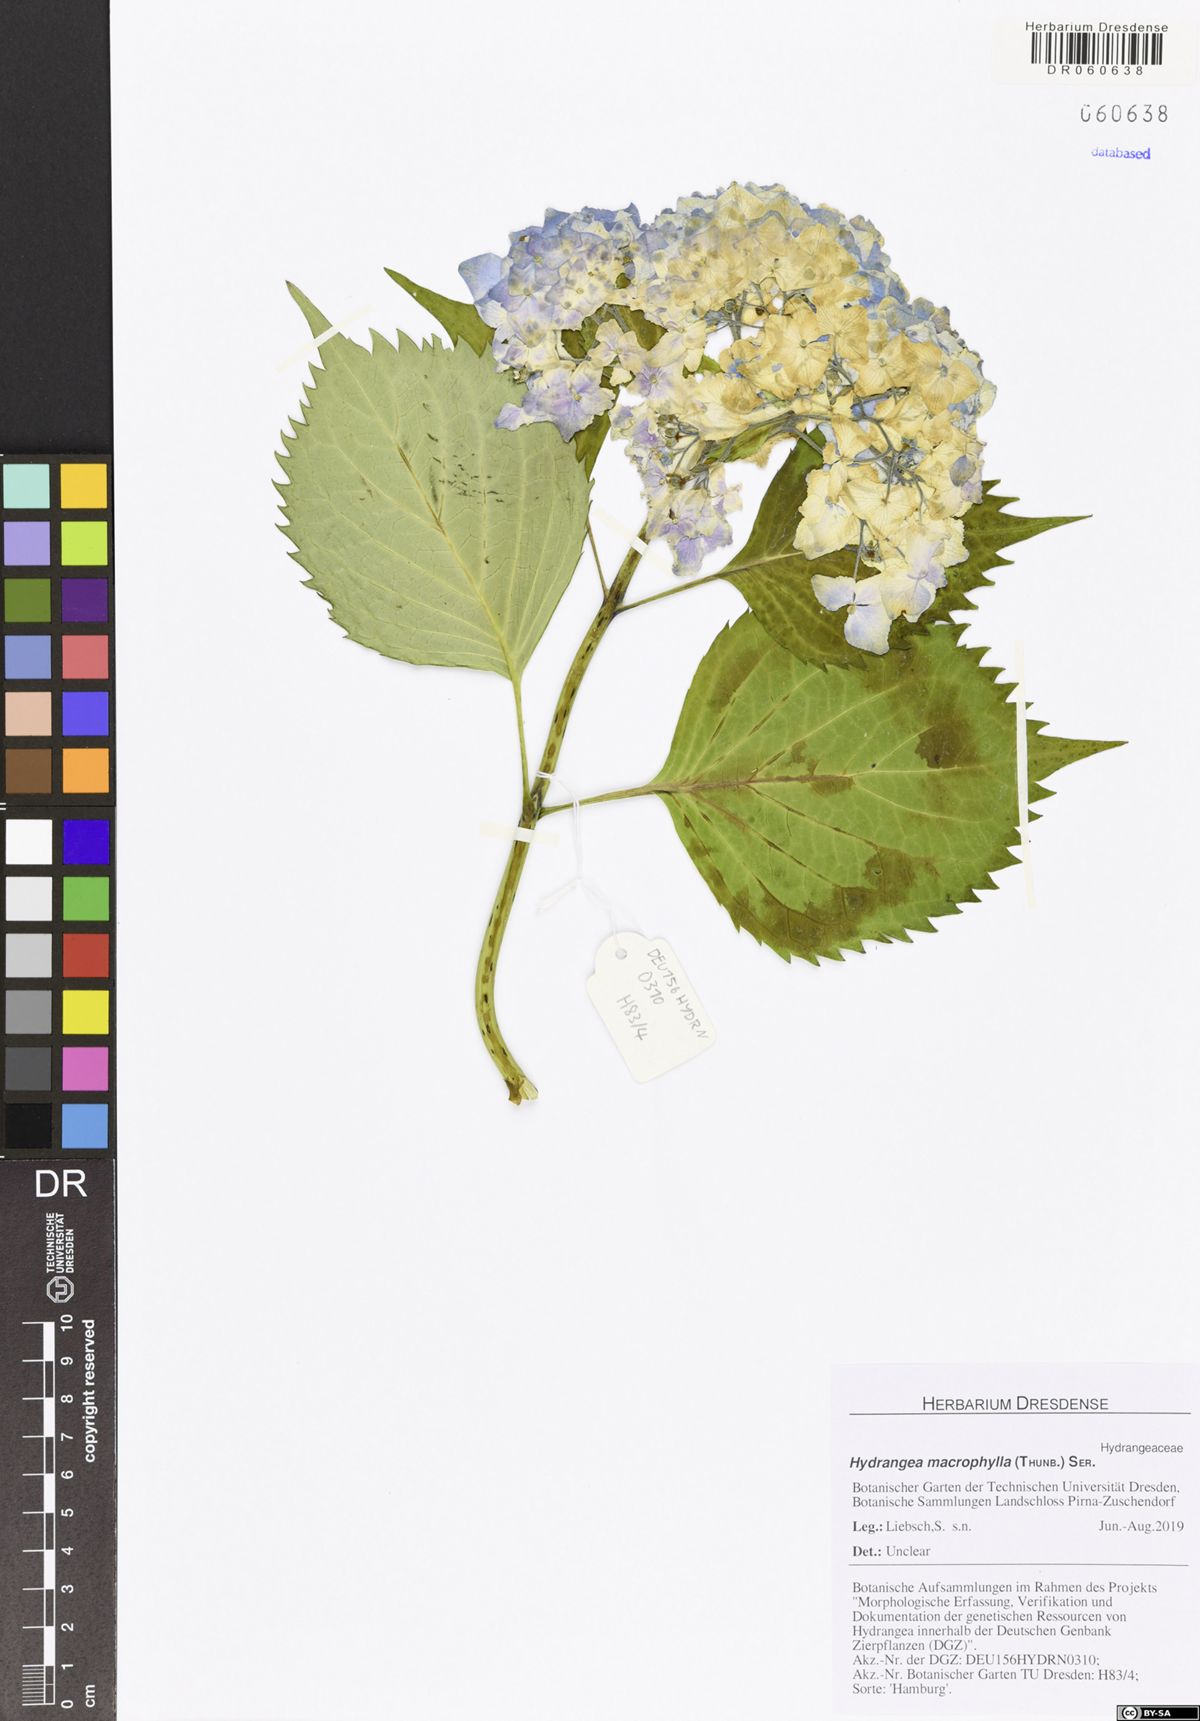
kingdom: Plantae
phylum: Tracheophyta
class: Magnoliopsida
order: Cornales
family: Hydrangeaceae
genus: Hydrangea
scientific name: Hydrangea macrophylla
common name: Hydrangea
